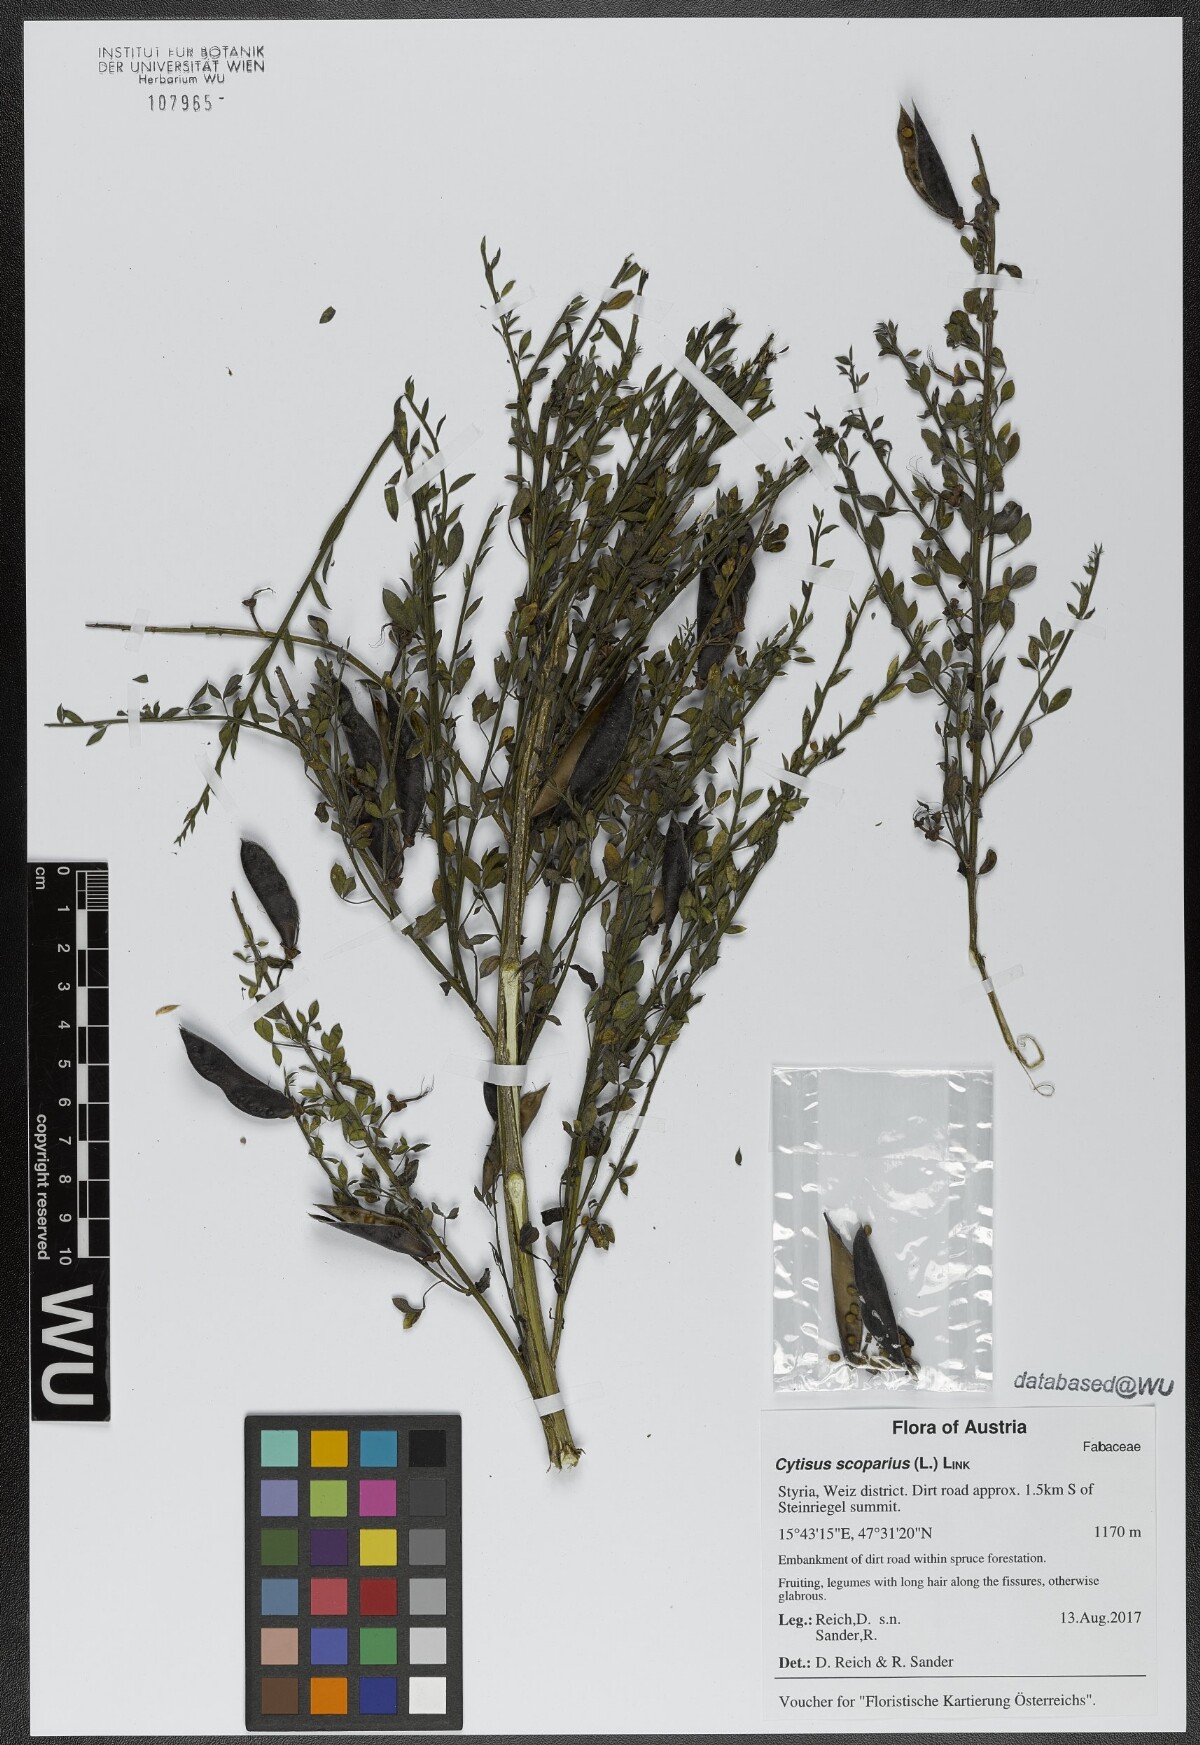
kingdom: Plantae
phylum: Tracheophyta
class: Magnoliopsida
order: Fabales
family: Fabaceae
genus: Cytisus
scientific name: Cytisus scoparius
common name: Scotch broom
